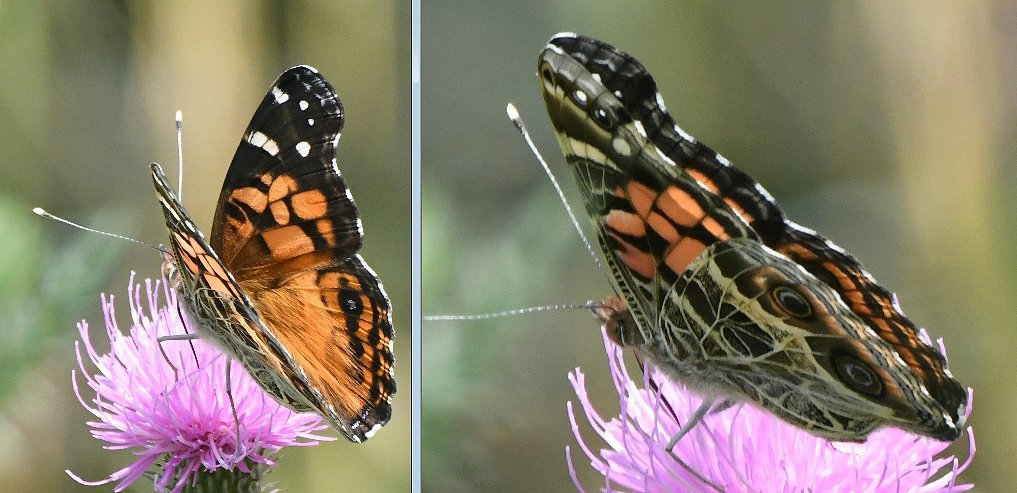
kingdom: Animalia
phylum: Arthropoda
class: Insecta
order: Lepidoptera
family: Nymphalidae
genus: Vanessa
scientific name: Vanessa virginiensis
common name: American Lady
